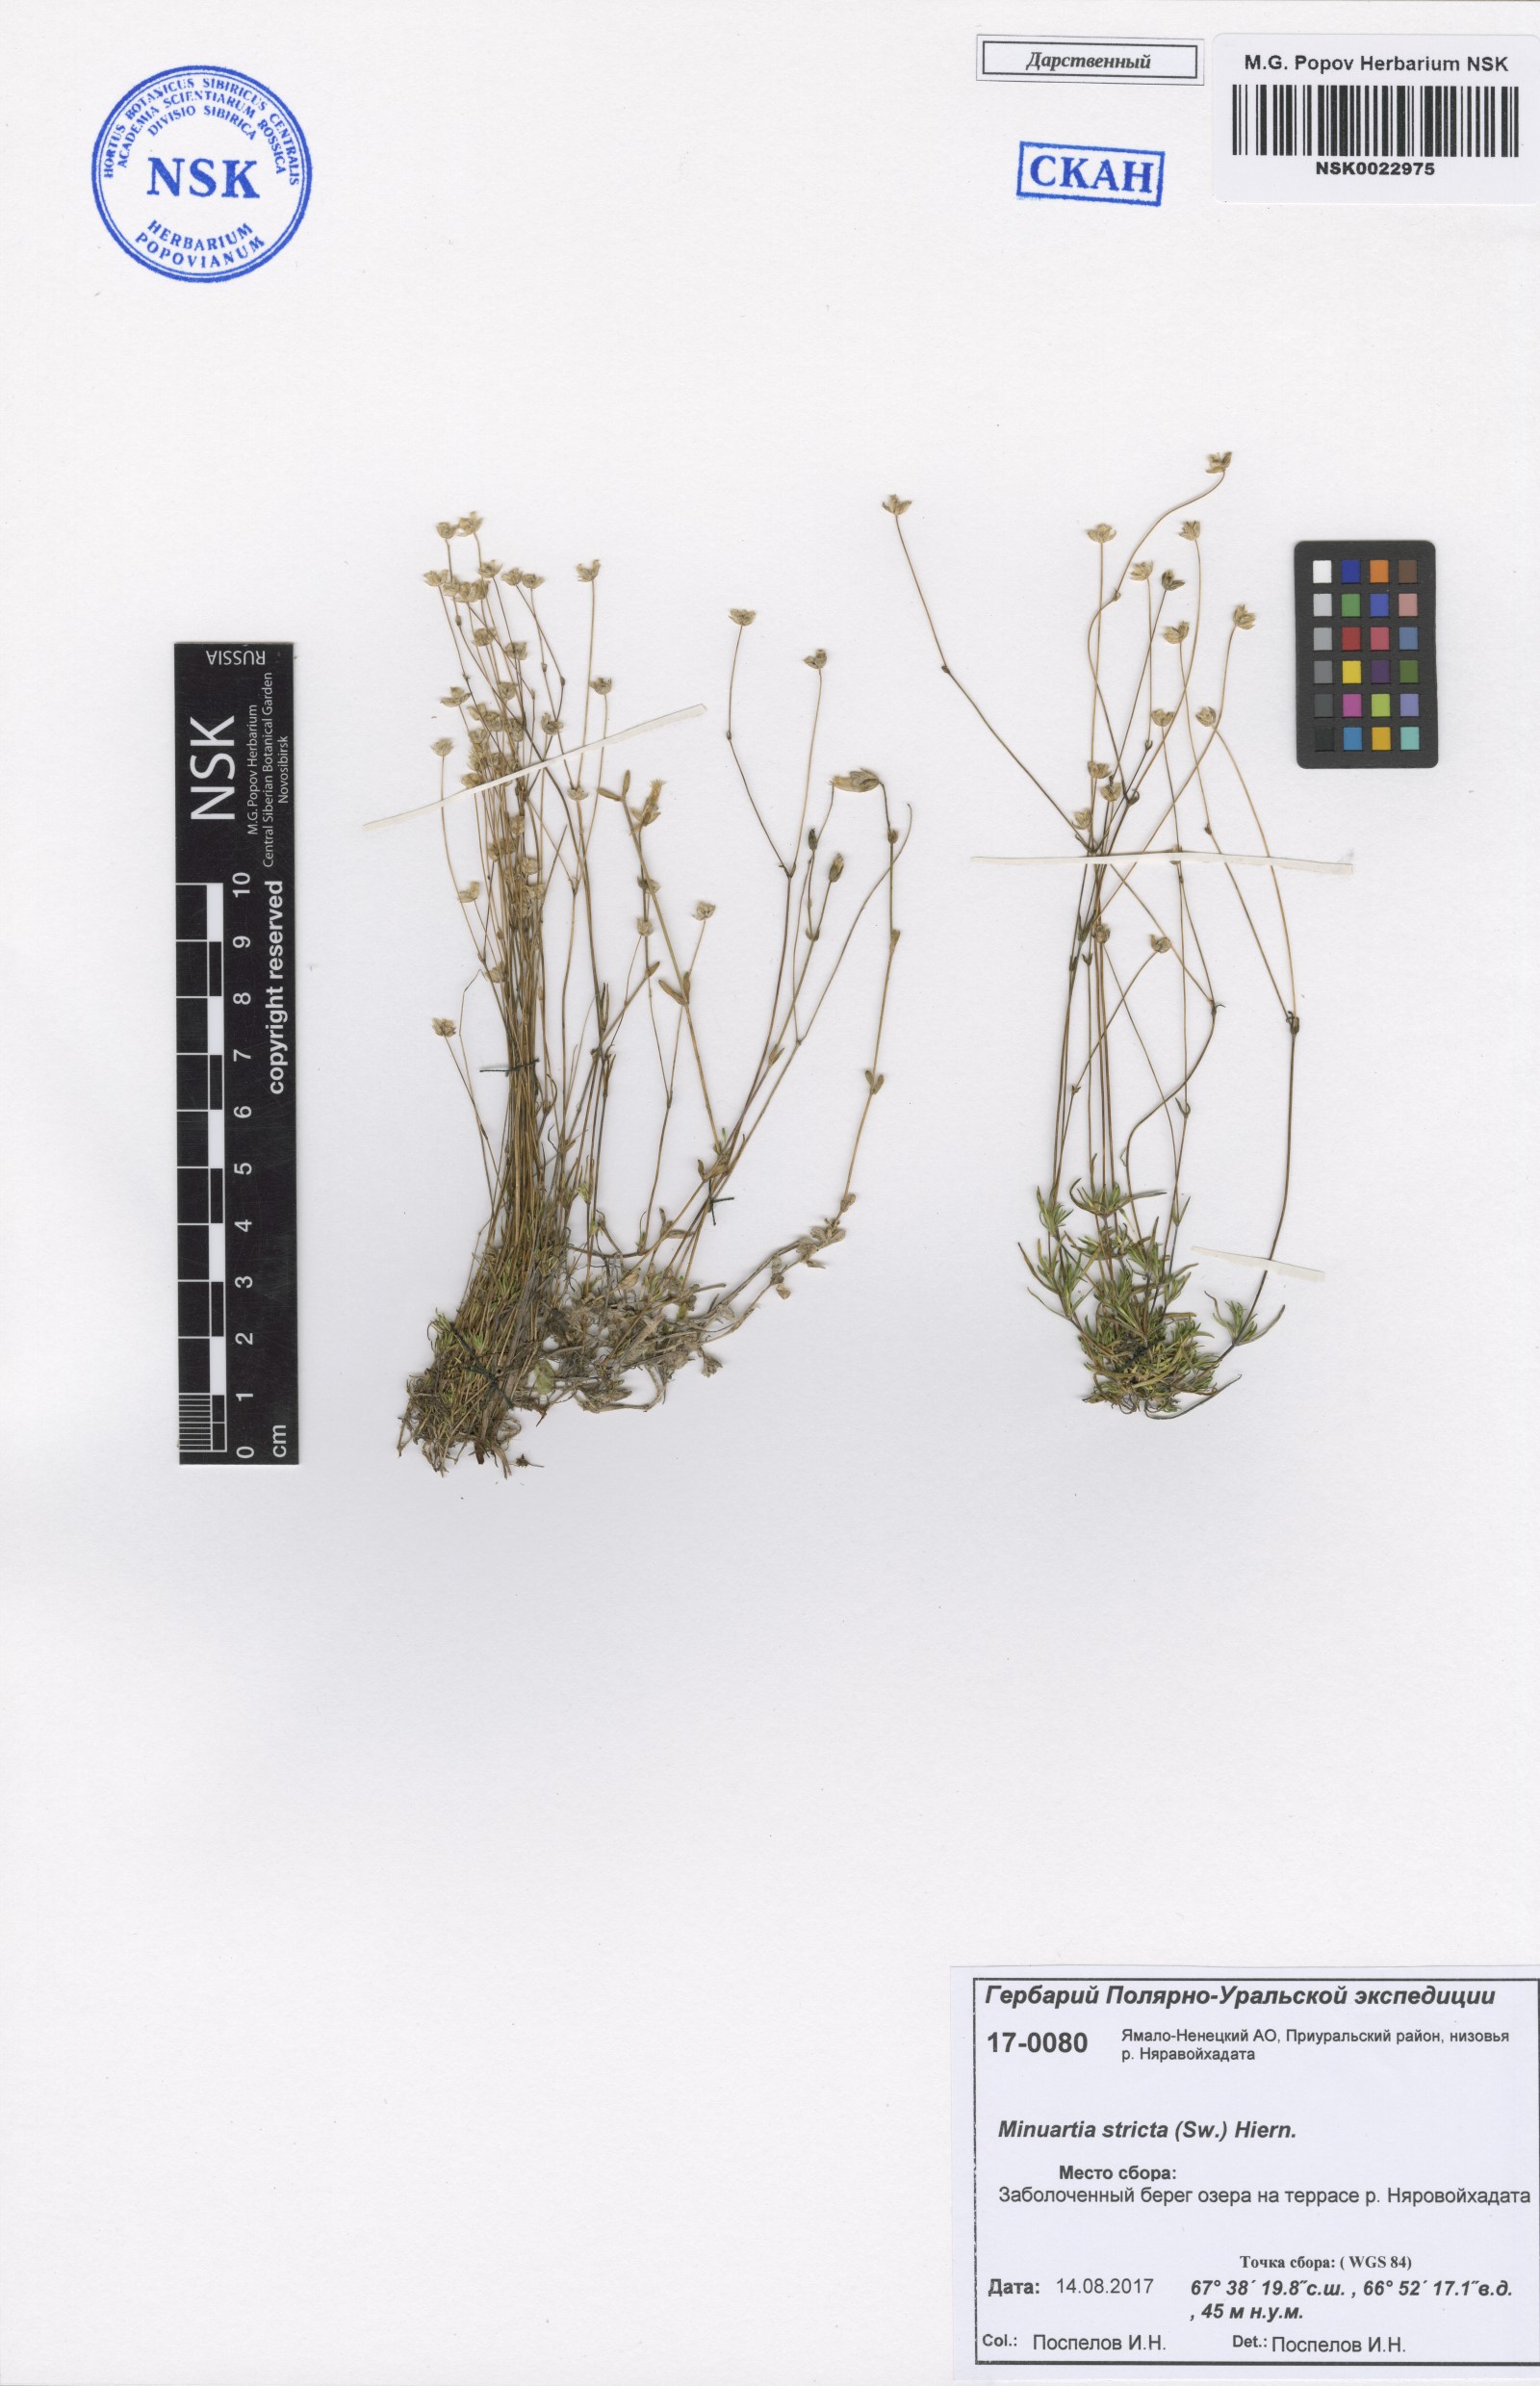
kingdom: Plantae
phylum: Tracheophyta
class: Magnoliopsida
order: Caryophyllales
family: Caryophyllaceae
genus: Sabulina
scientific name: Sabulina stricta
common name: Bog sandwort
